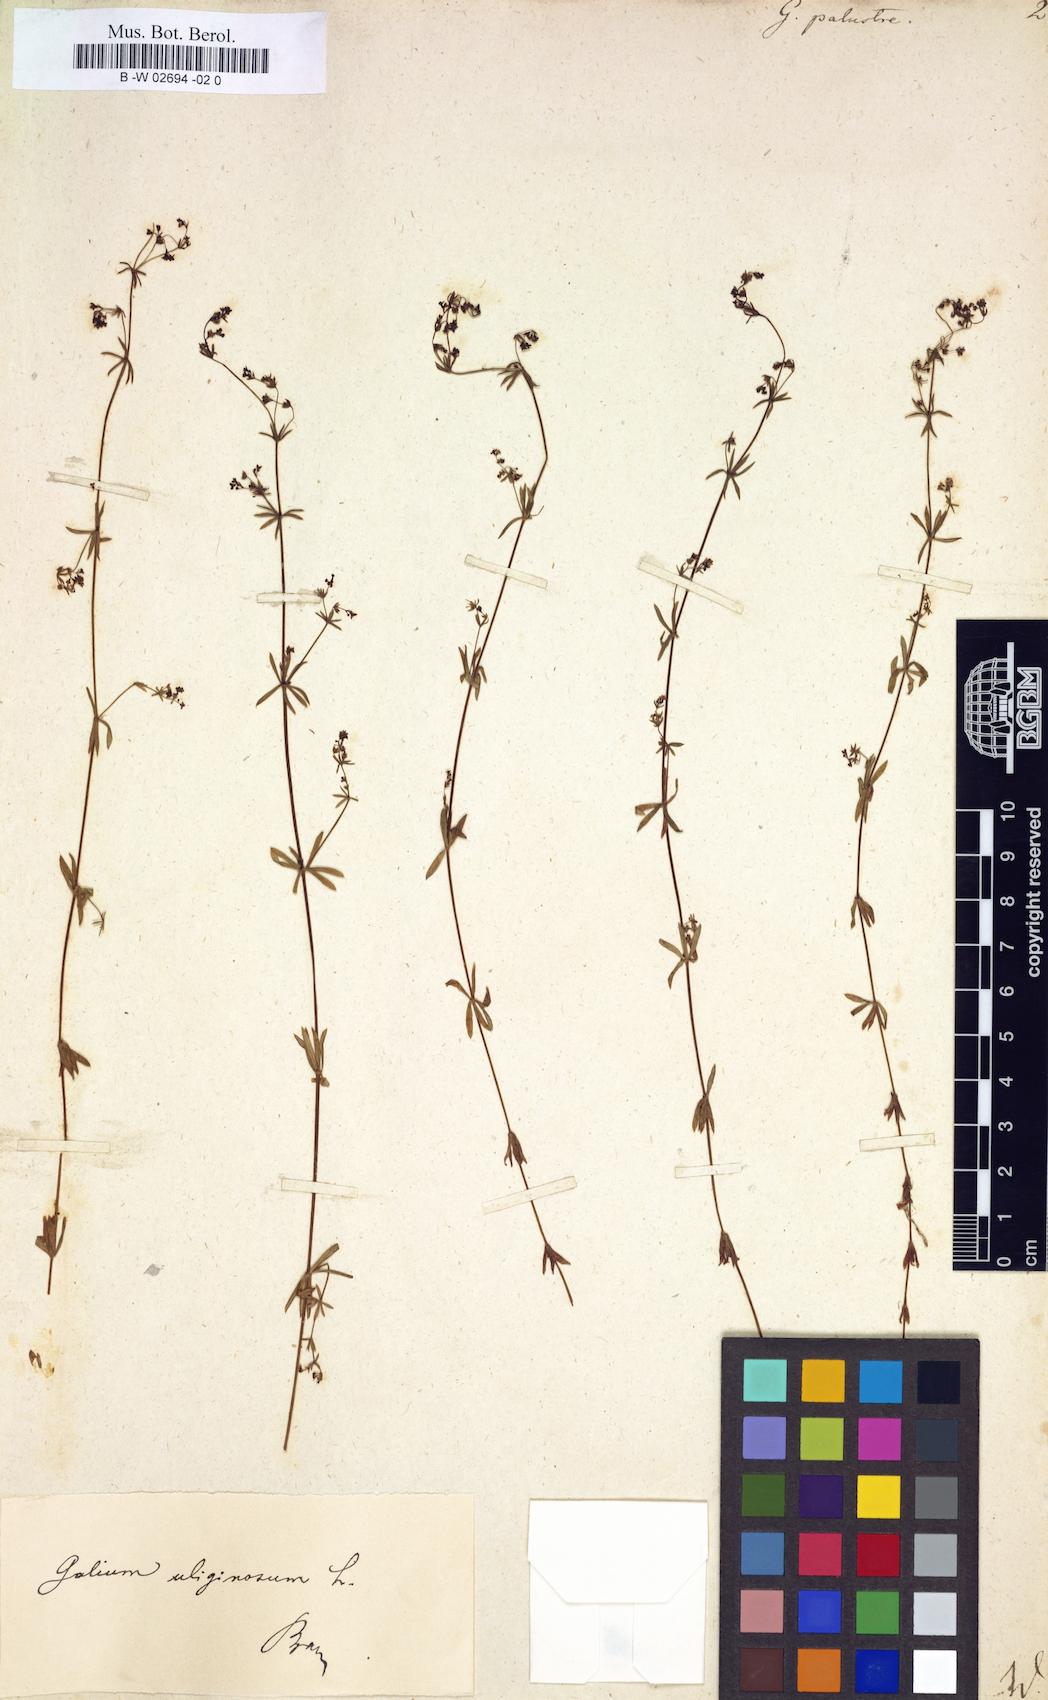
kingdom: Plantae
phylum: Tracheophyta
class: Magnoliopsida
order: Gentianales
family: Rubiaceae
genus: Galium
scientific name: Galium palustre
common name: Common marsh-bedstraw
